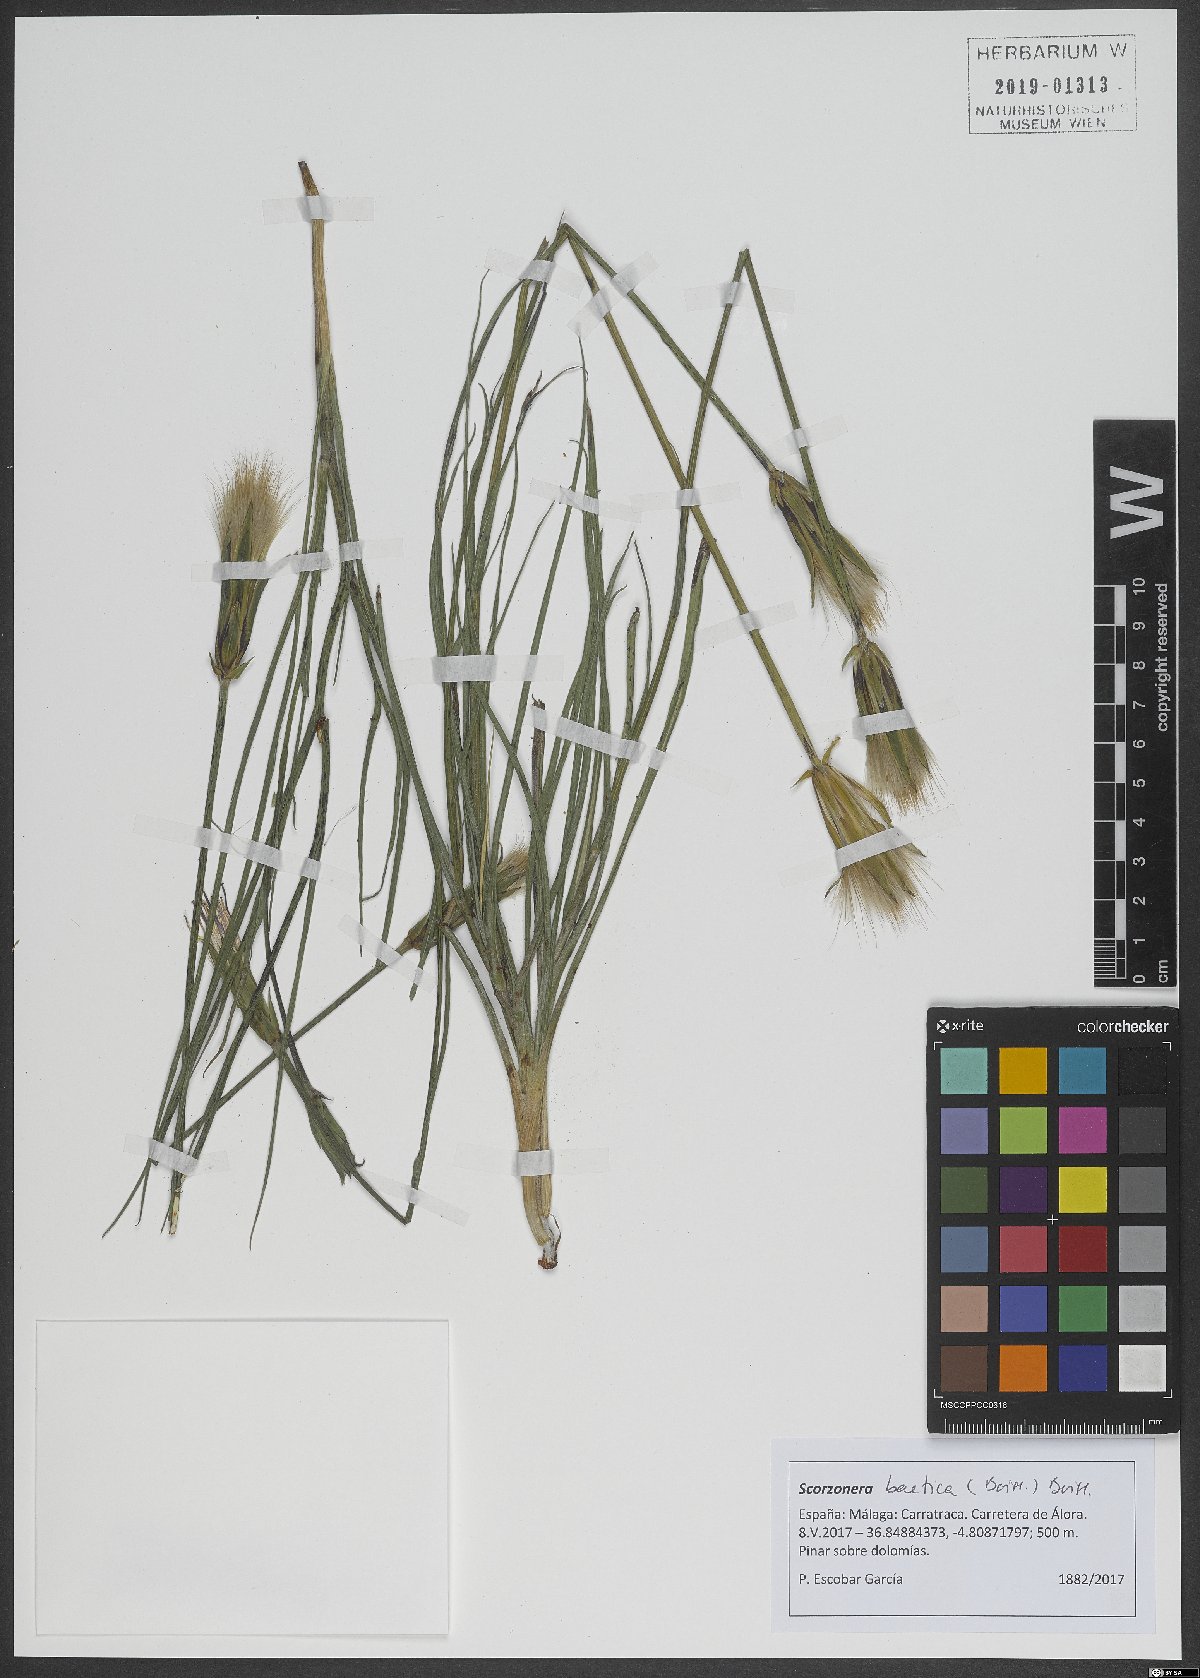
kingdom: Plantae
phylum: Tracheophyta
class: Magnoliopsida
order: Asterales
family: Asteraceae
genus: Scorzonera
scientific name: Scorzonera baetica
